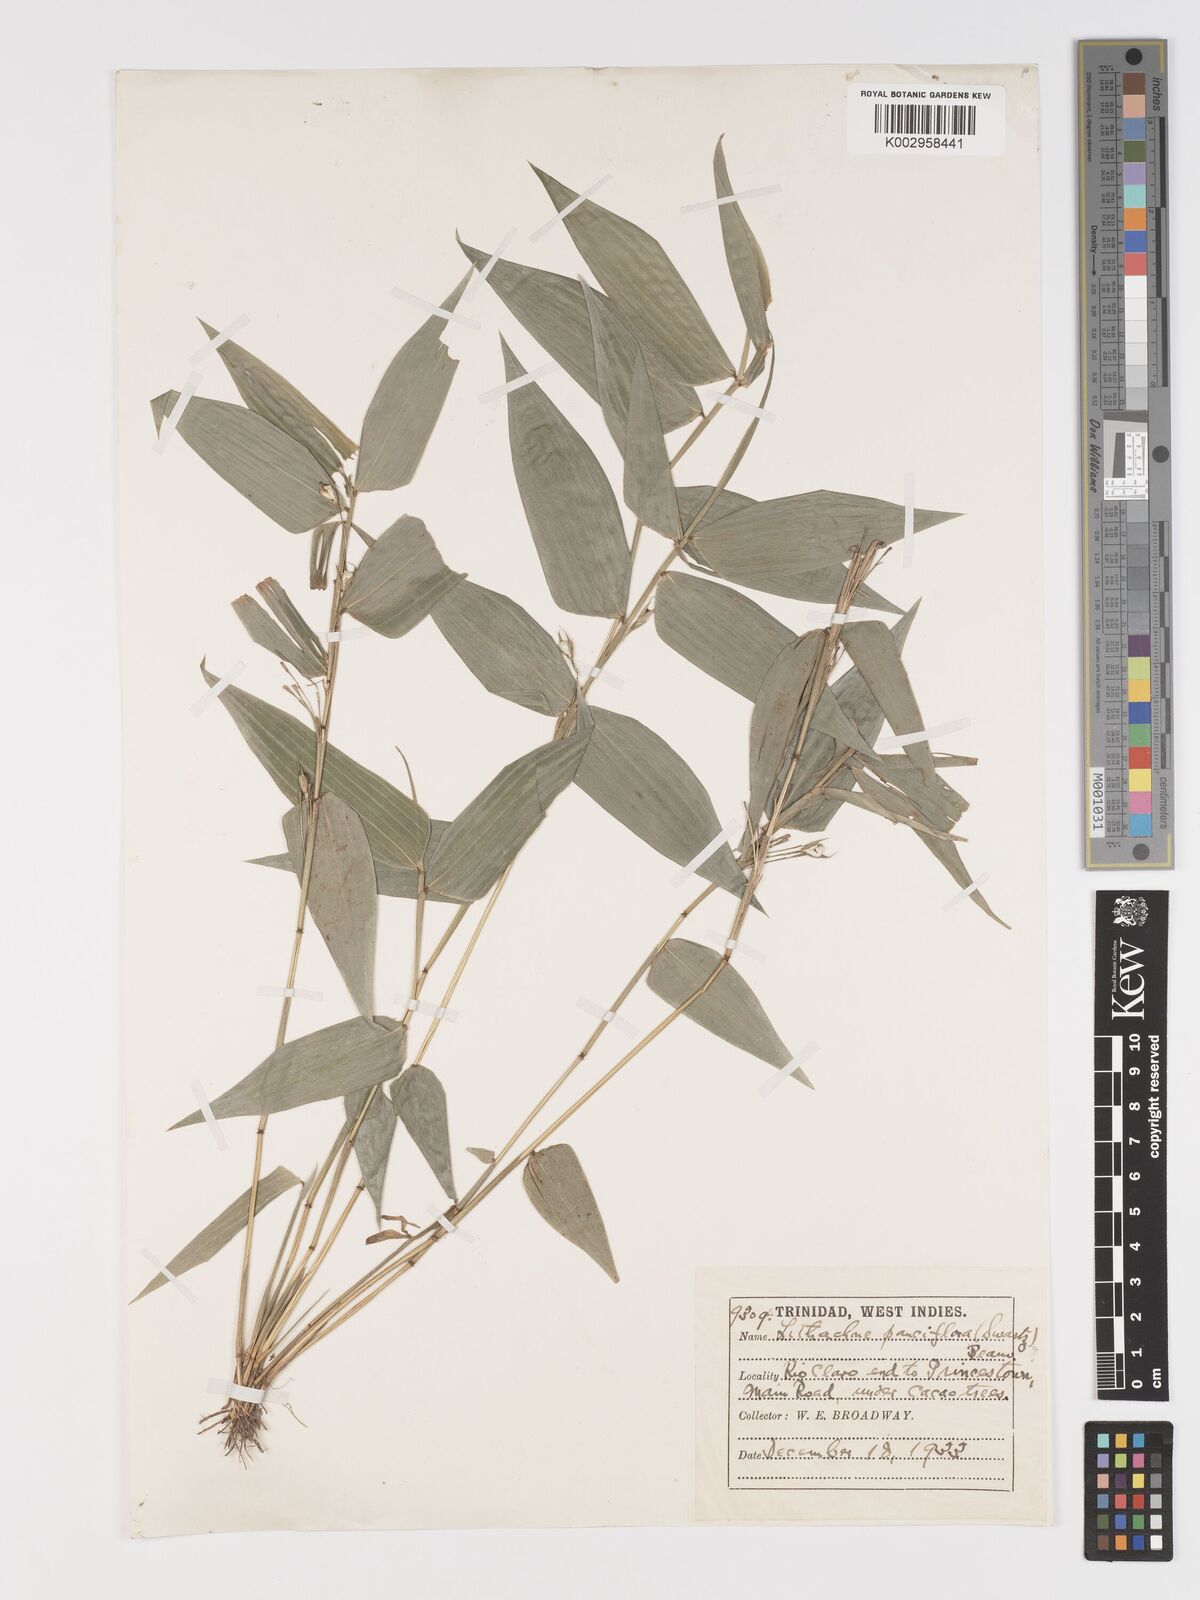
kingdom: Plantae
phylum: Tracheophyta
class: Liliopsida
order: Poales
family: Poaceae
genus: Lithachne
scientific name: Lithachne pauciflora
